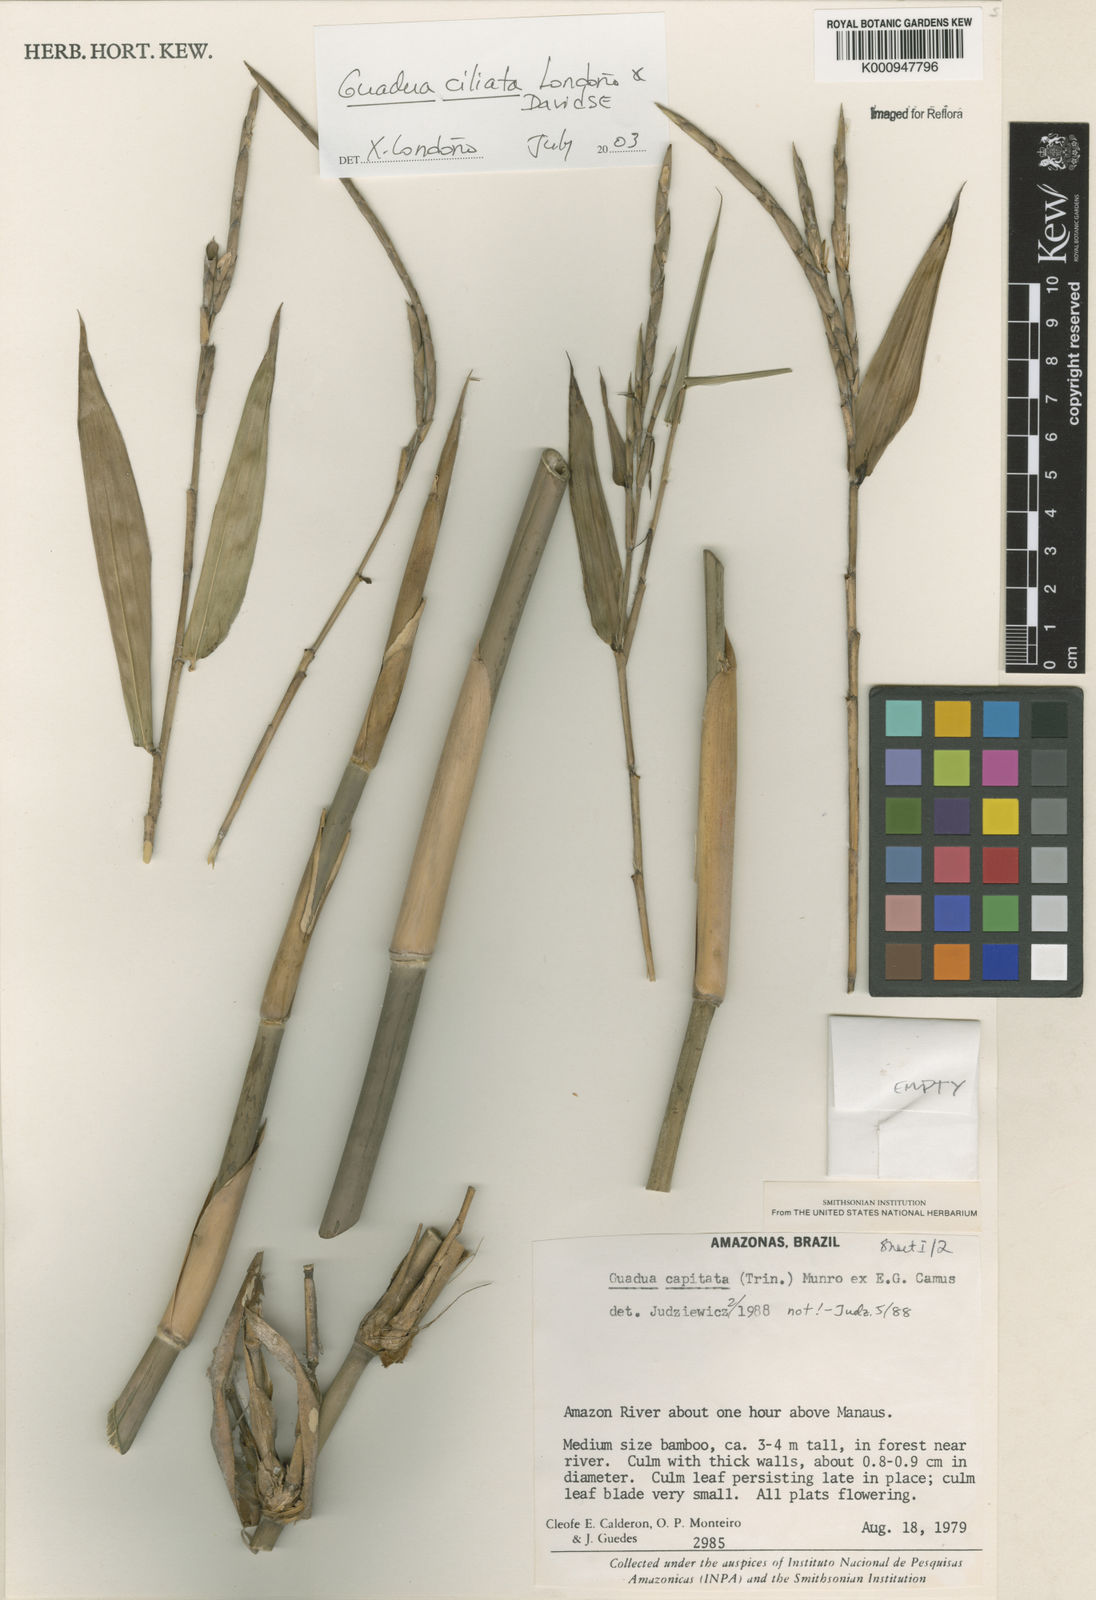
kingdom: Plantae
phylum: Tracheophyta
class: Liliopsida
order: Poales
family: Poaceae
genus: Guadua
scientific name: Guadua
